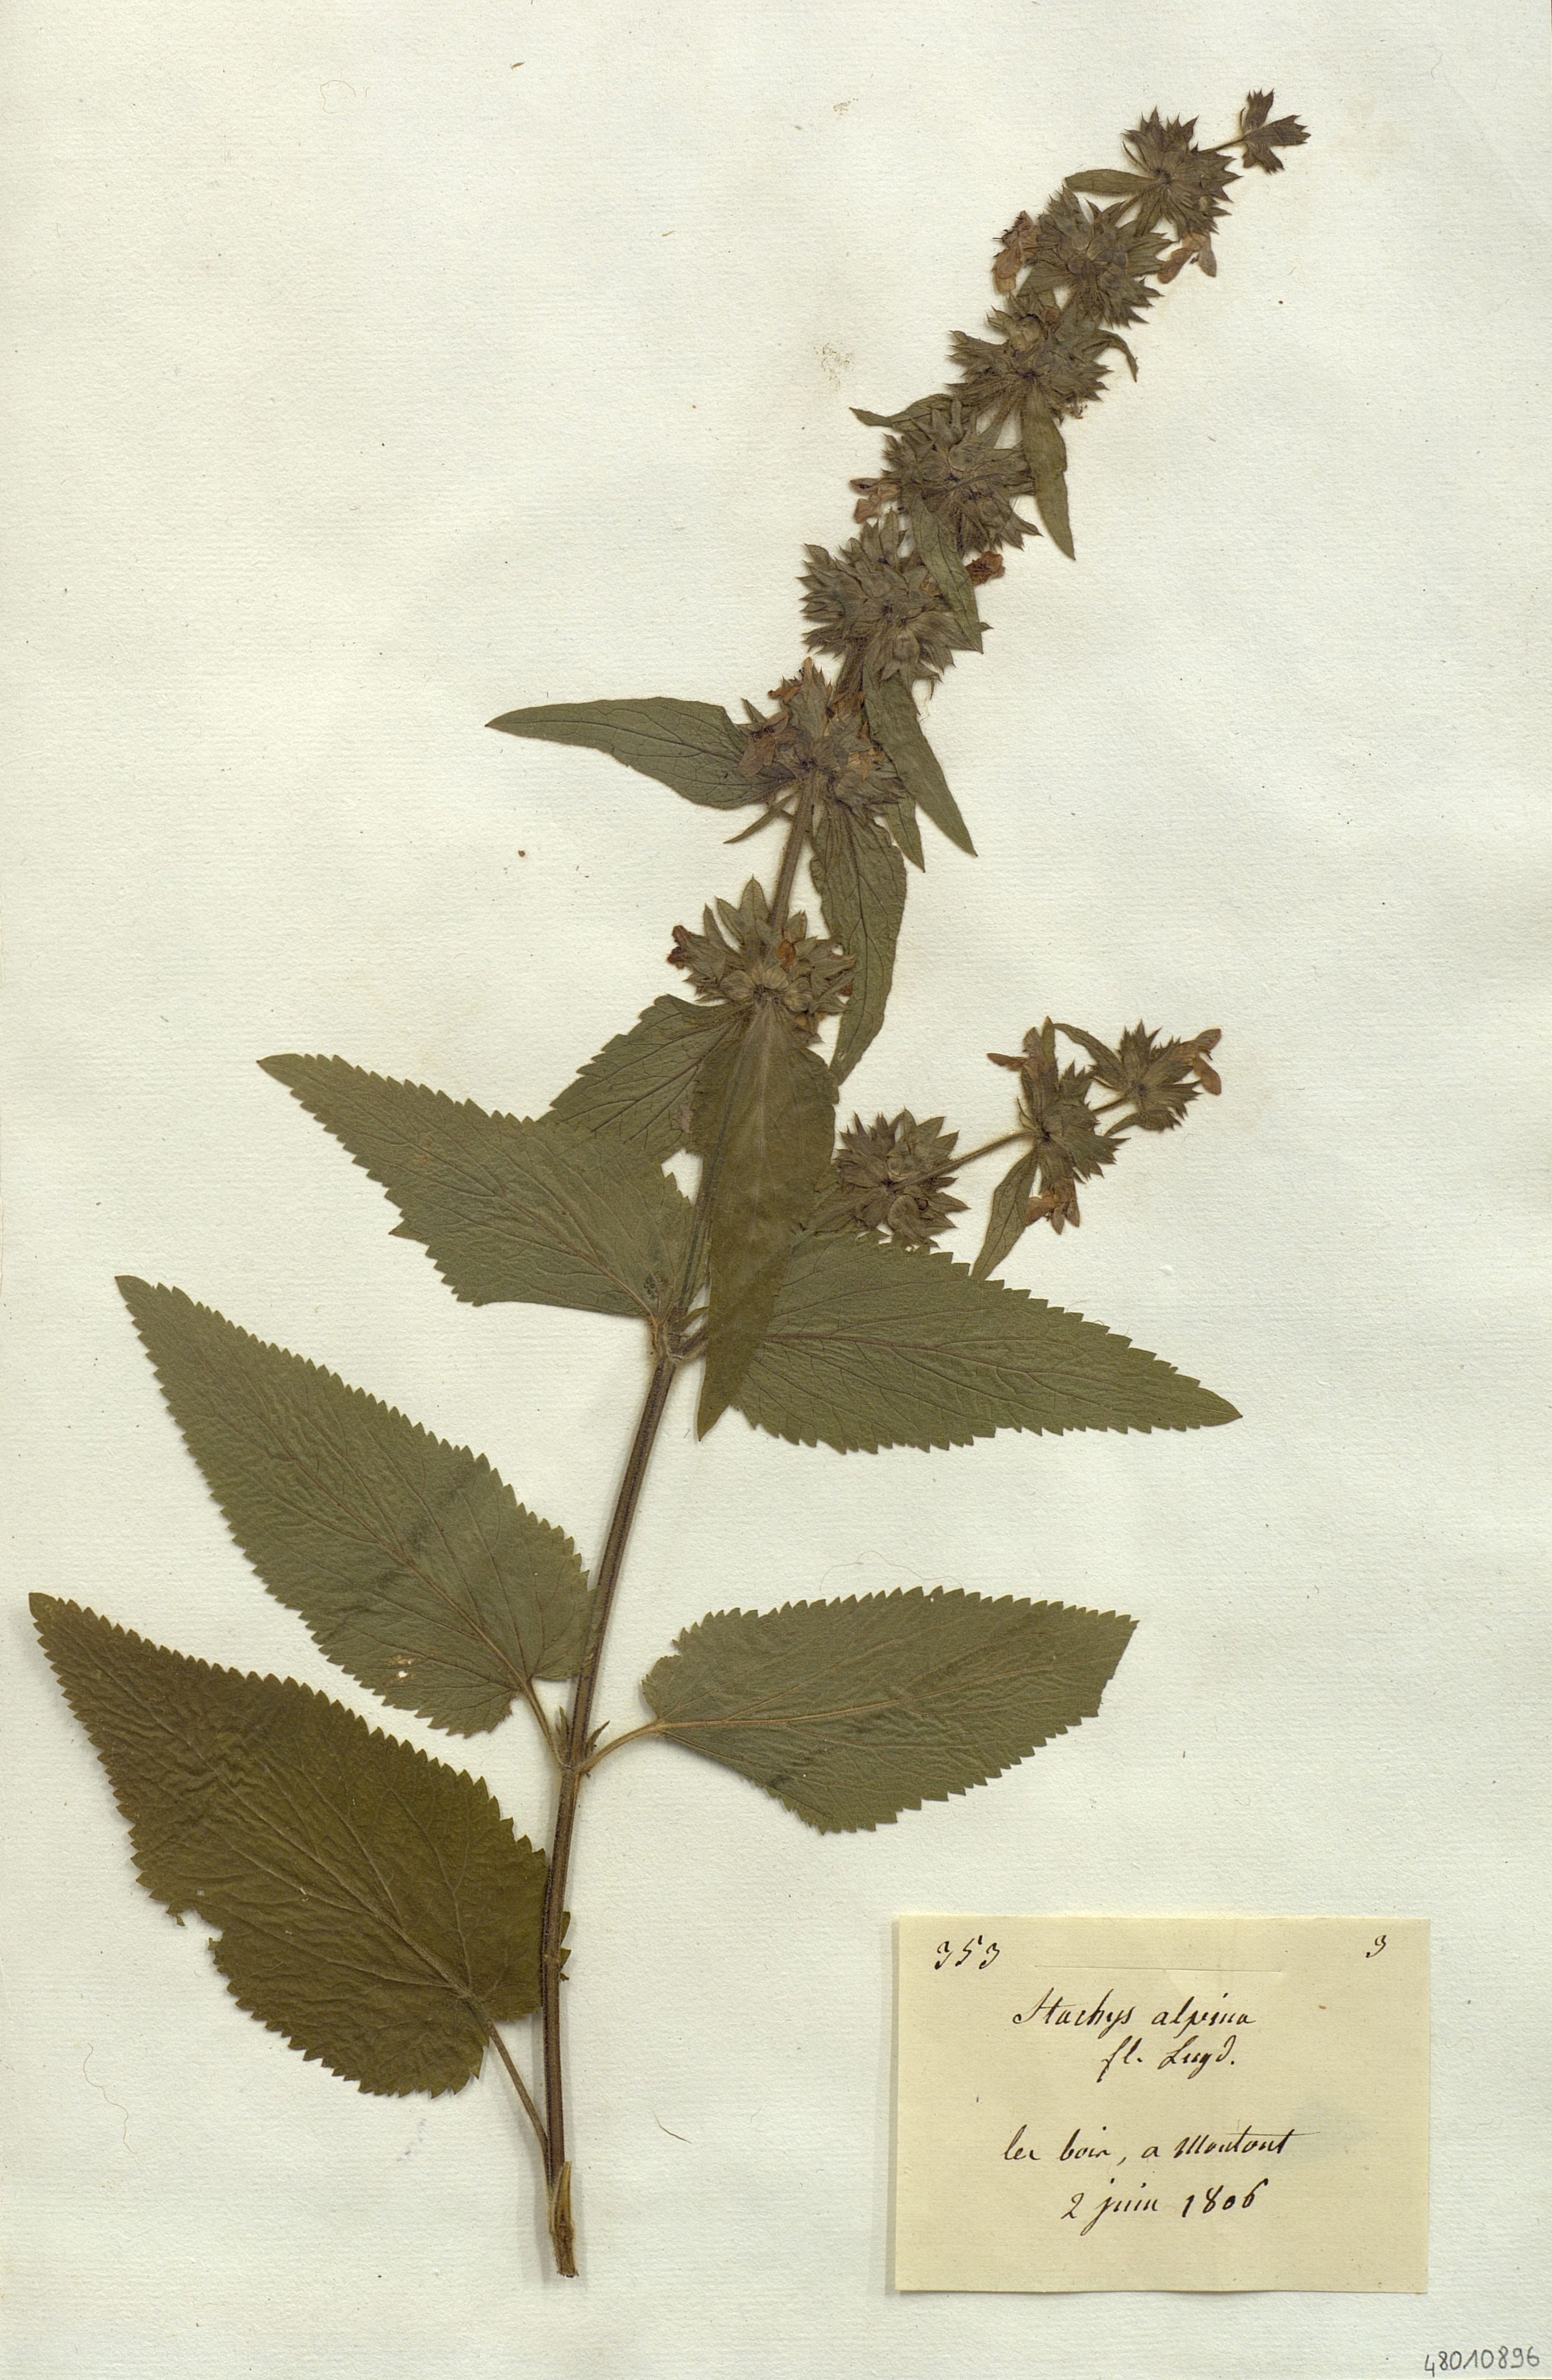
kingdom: Plantae
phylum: Tracheophyta
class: Magnoliopsida
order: Lamiales
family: Lamiaceae
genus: Stachys
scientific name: Stachys alpina
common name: Limestone woundwort
